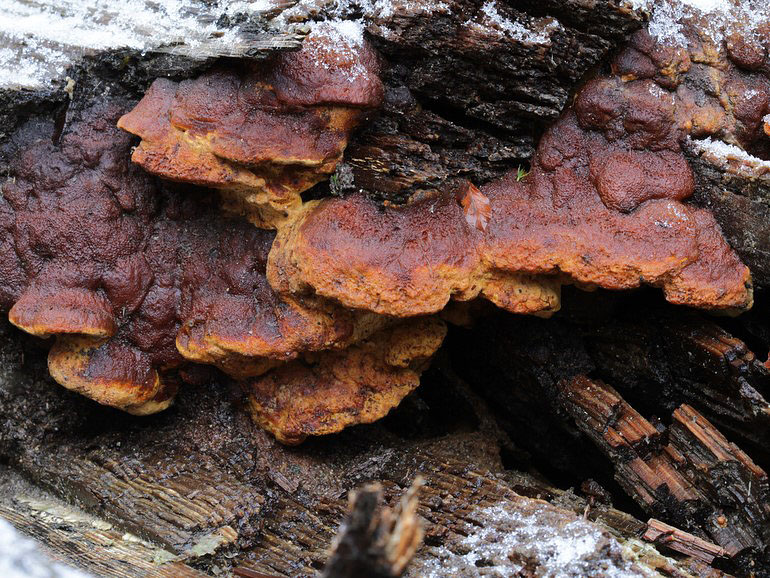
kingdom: Fungi
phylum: Basidiomycota
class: Agaricomycetes
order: Gloeophyllales
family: Gloeophyllaceae
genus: Gloeophyllum
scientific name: Gloeophyllum odoratum
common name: duftende korkhat
